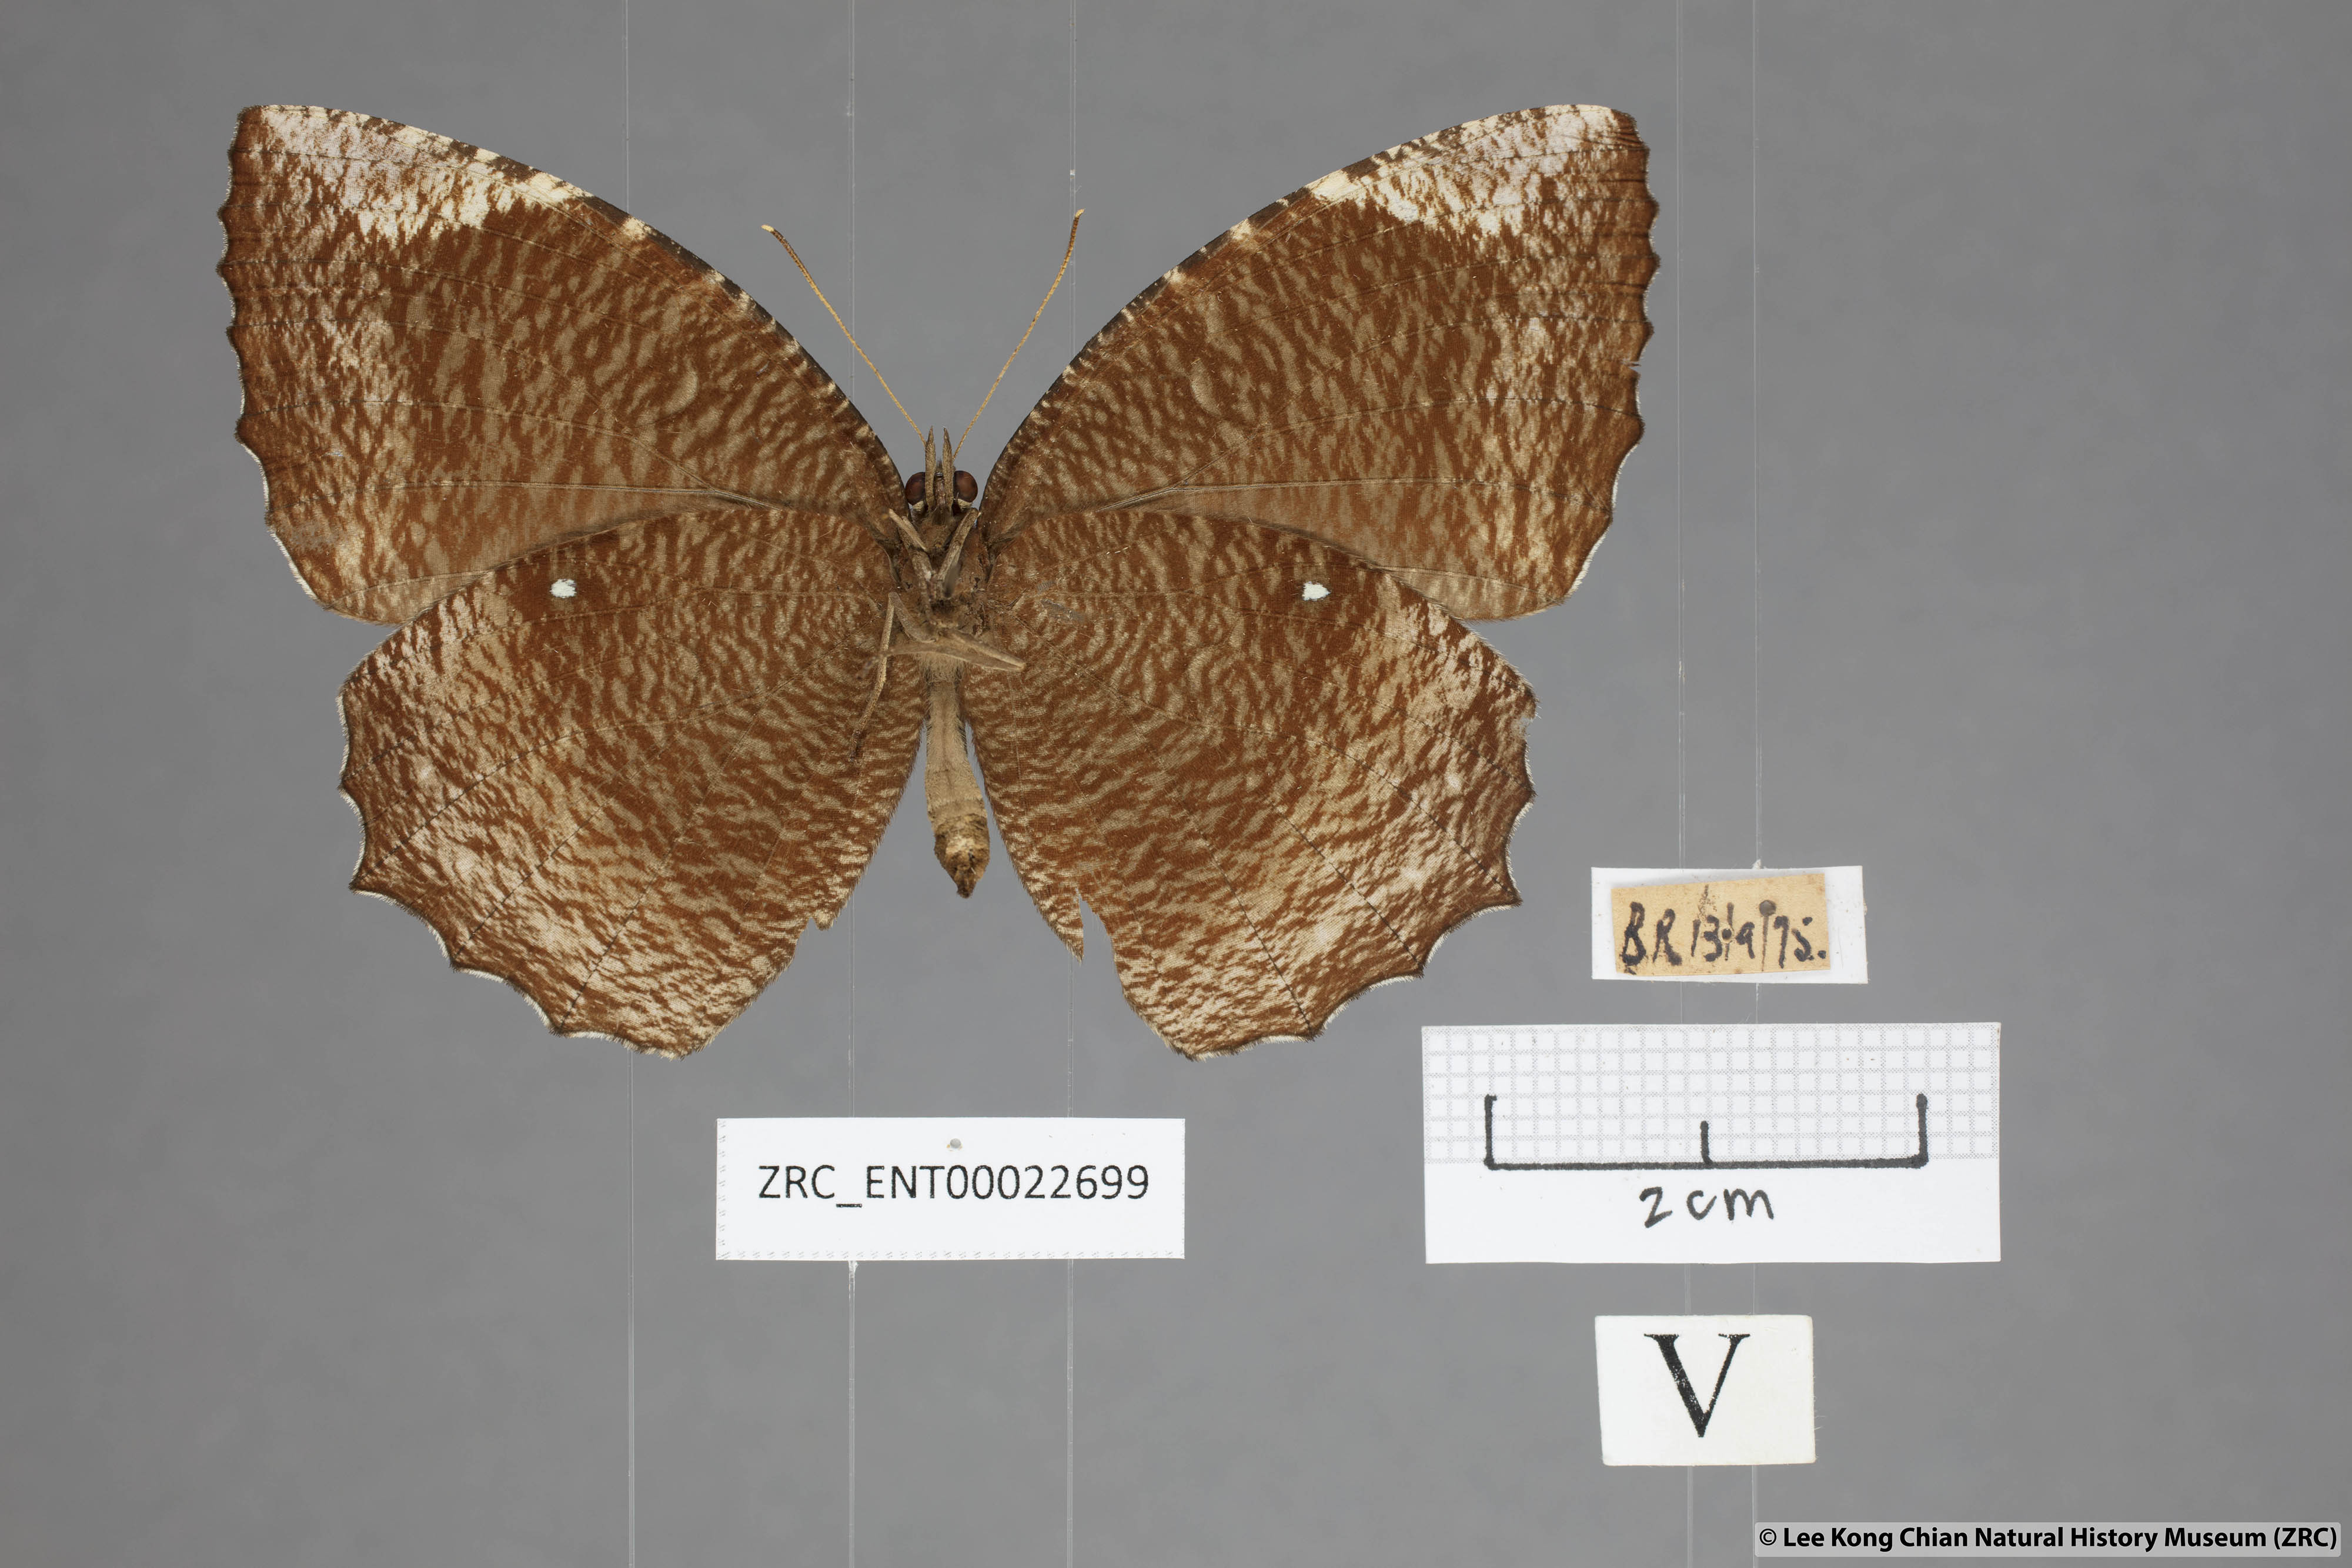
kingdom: Animalia
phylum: Arthropoda
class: Insecta
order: Lepidoptera
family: Nymphalidae
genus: Elymnias
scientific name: Elymnias hypermnestra
